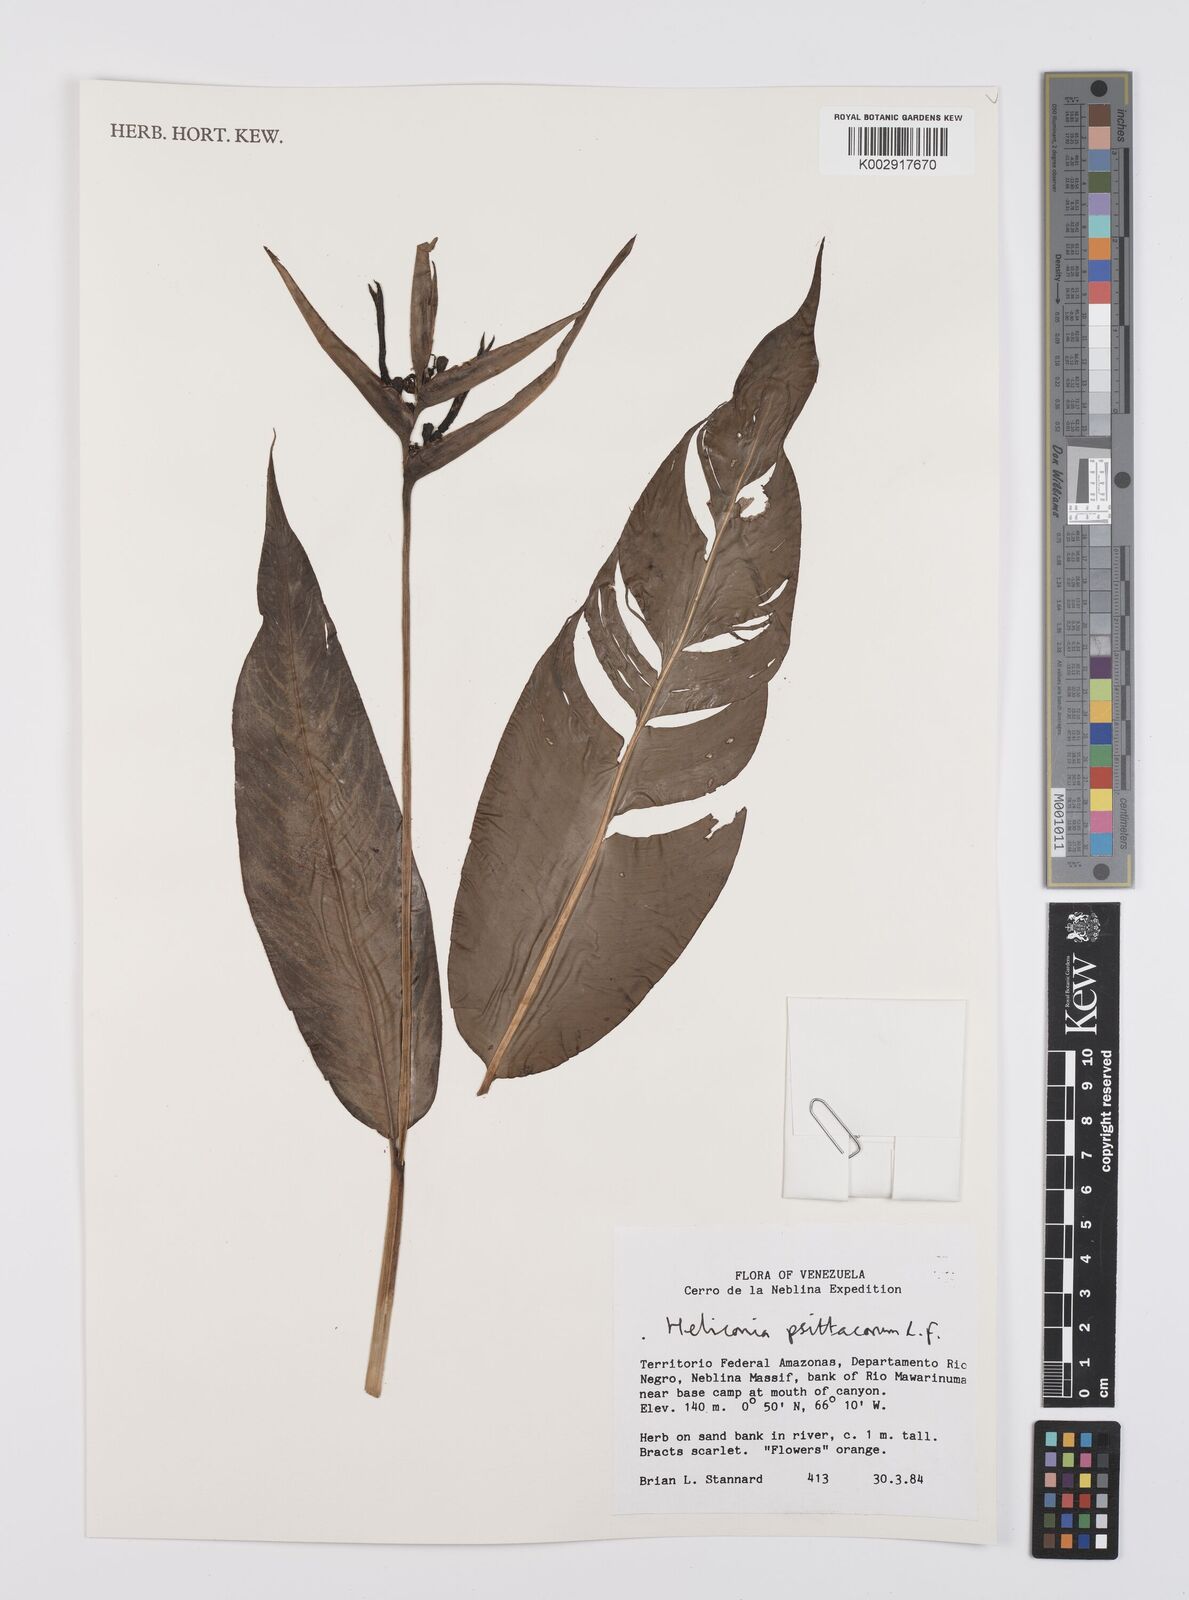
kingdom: Plantae
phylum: Tracheophyta
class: Liliopsida
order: Zingiberales
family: Heliconiaceae
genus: Heliconia
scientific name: Heliconia psittacorum
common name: Parrot's-flower
